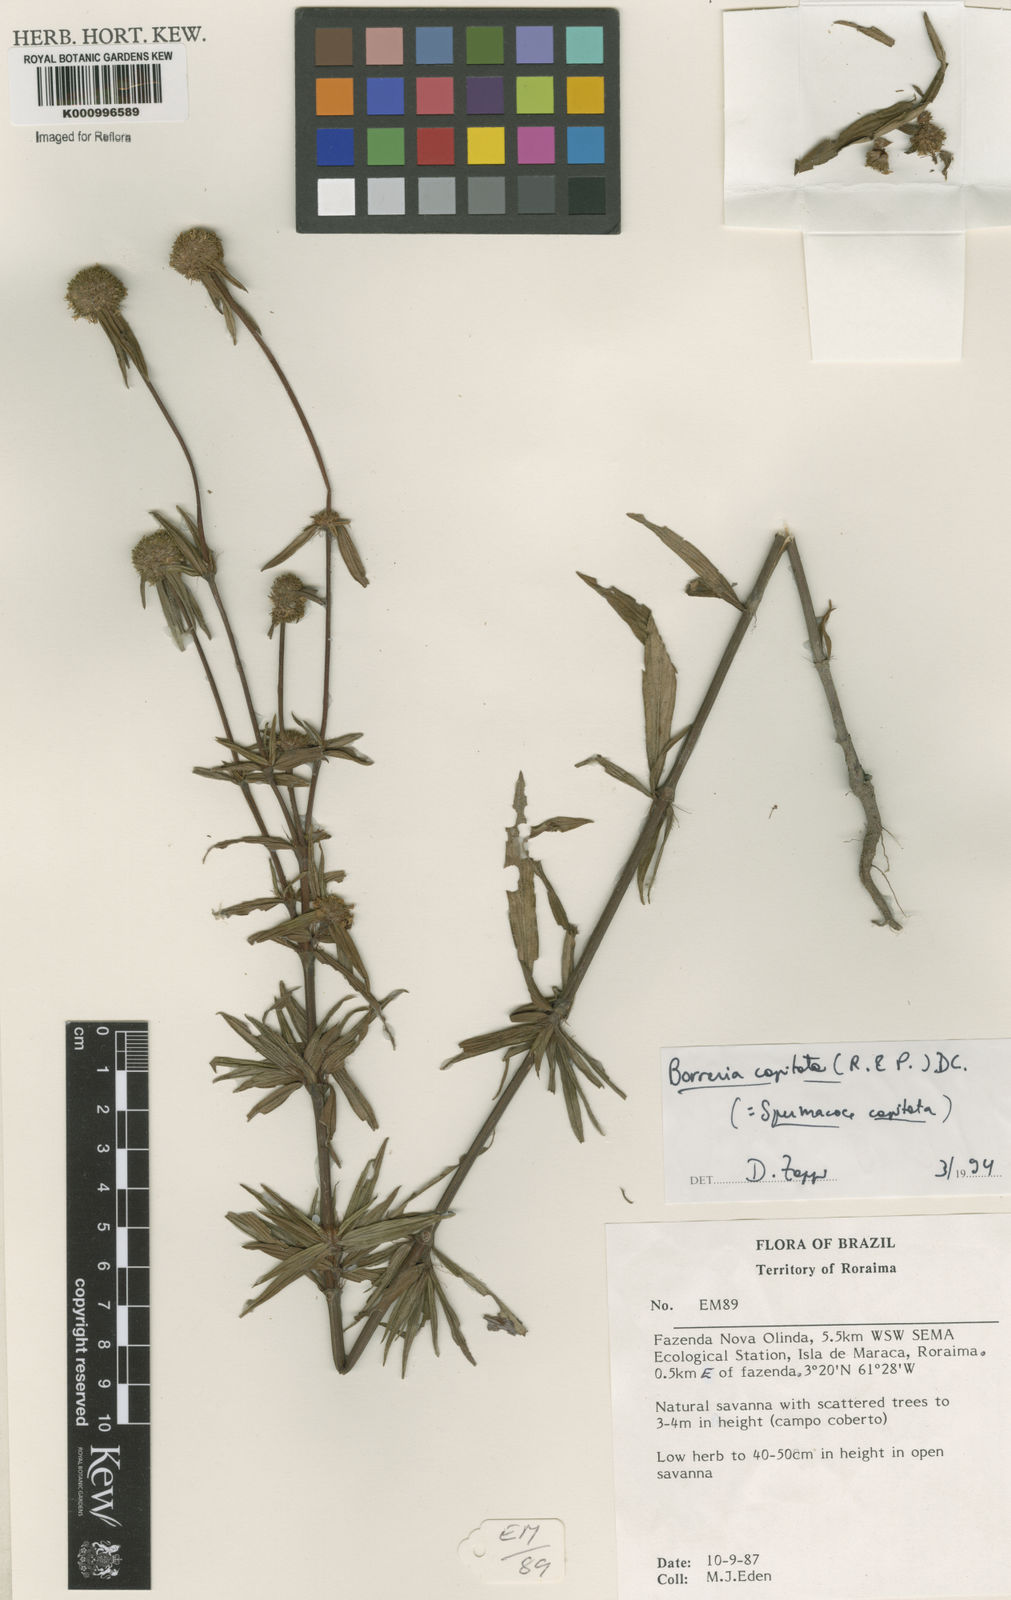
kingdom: Plantae
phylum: Tracheophyta
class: Magnoliopsida
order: Gentianales
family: Rubiaceae
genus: Spermacoce
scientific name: Spermacoce capitata
